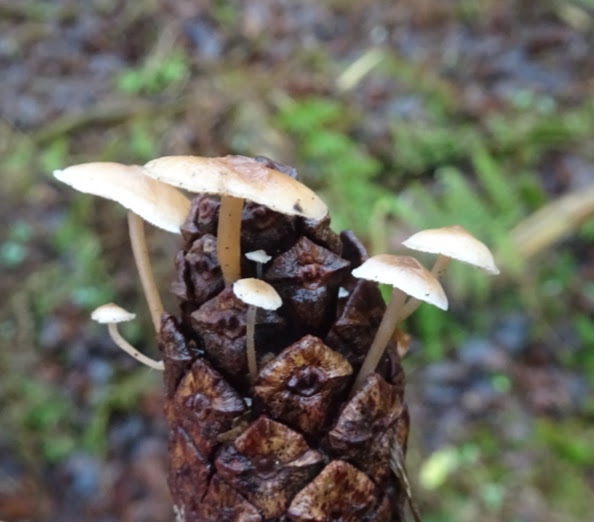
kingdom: Fungi
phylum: Basidiomycota
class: Agaricomycetes
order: Agaricales
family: Marasmiaceae
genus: Baeospora
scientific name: Baeospora myosura
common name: koglebruskhat
